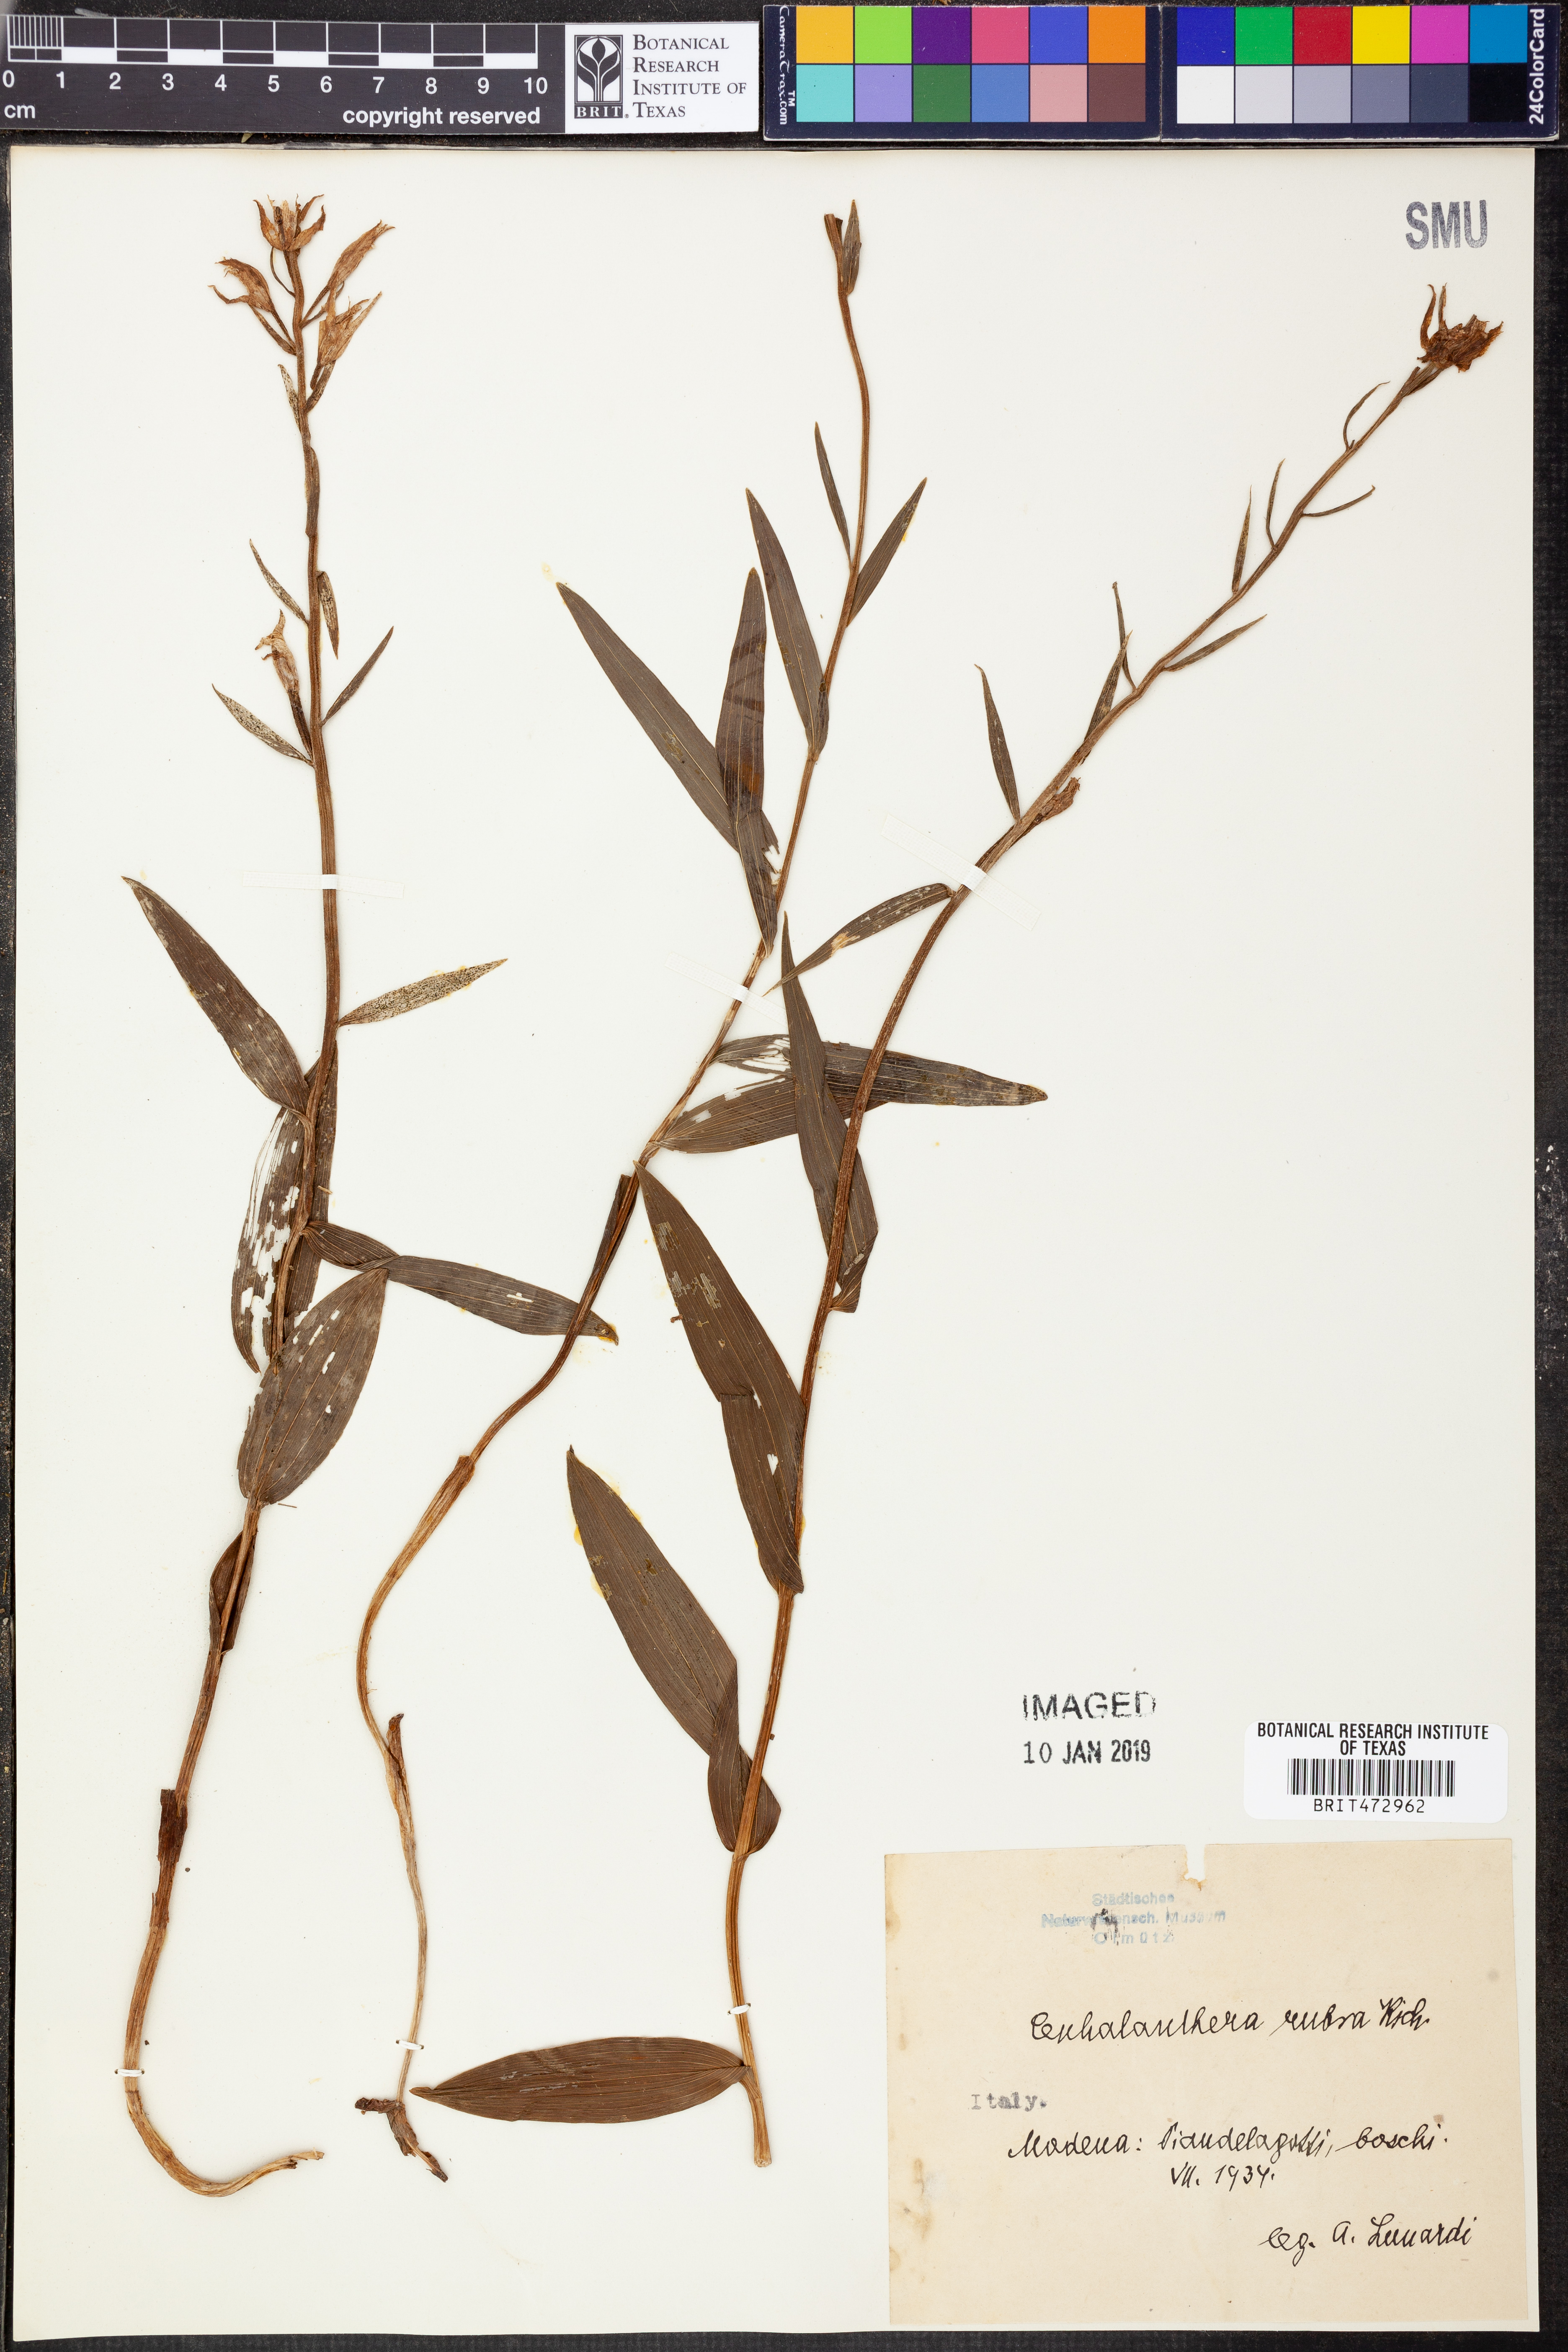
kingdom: Plantae
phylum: Tracheophyta
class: Liliopsida
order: Asparagales
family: Orchidaceae
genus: Cephalanthera
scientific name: Cephalanthera rubra
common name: Red helleborine
